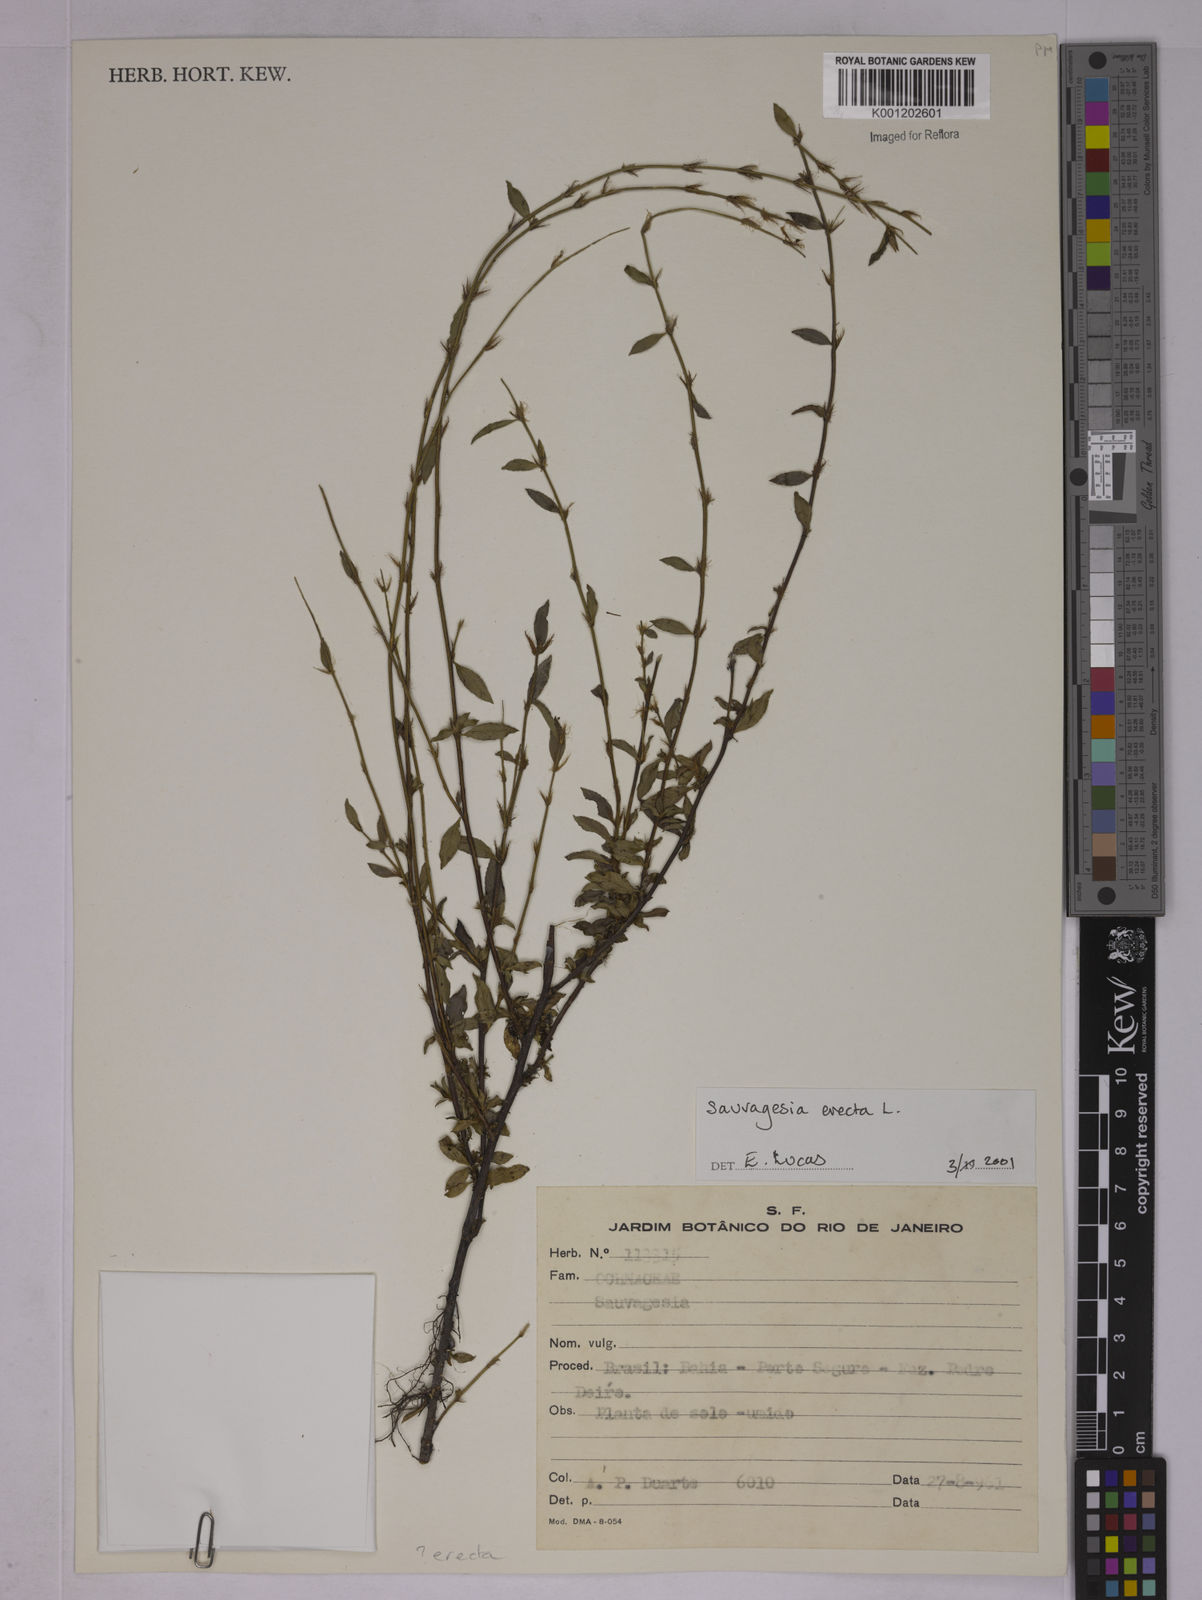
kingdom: Plantae
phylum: Tracheophyta
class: Magnoliopsida
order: Malpighiales
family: Ochnaceae
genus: Sauvagesia
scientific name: Sauvagesia erecta
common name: Creole tea
